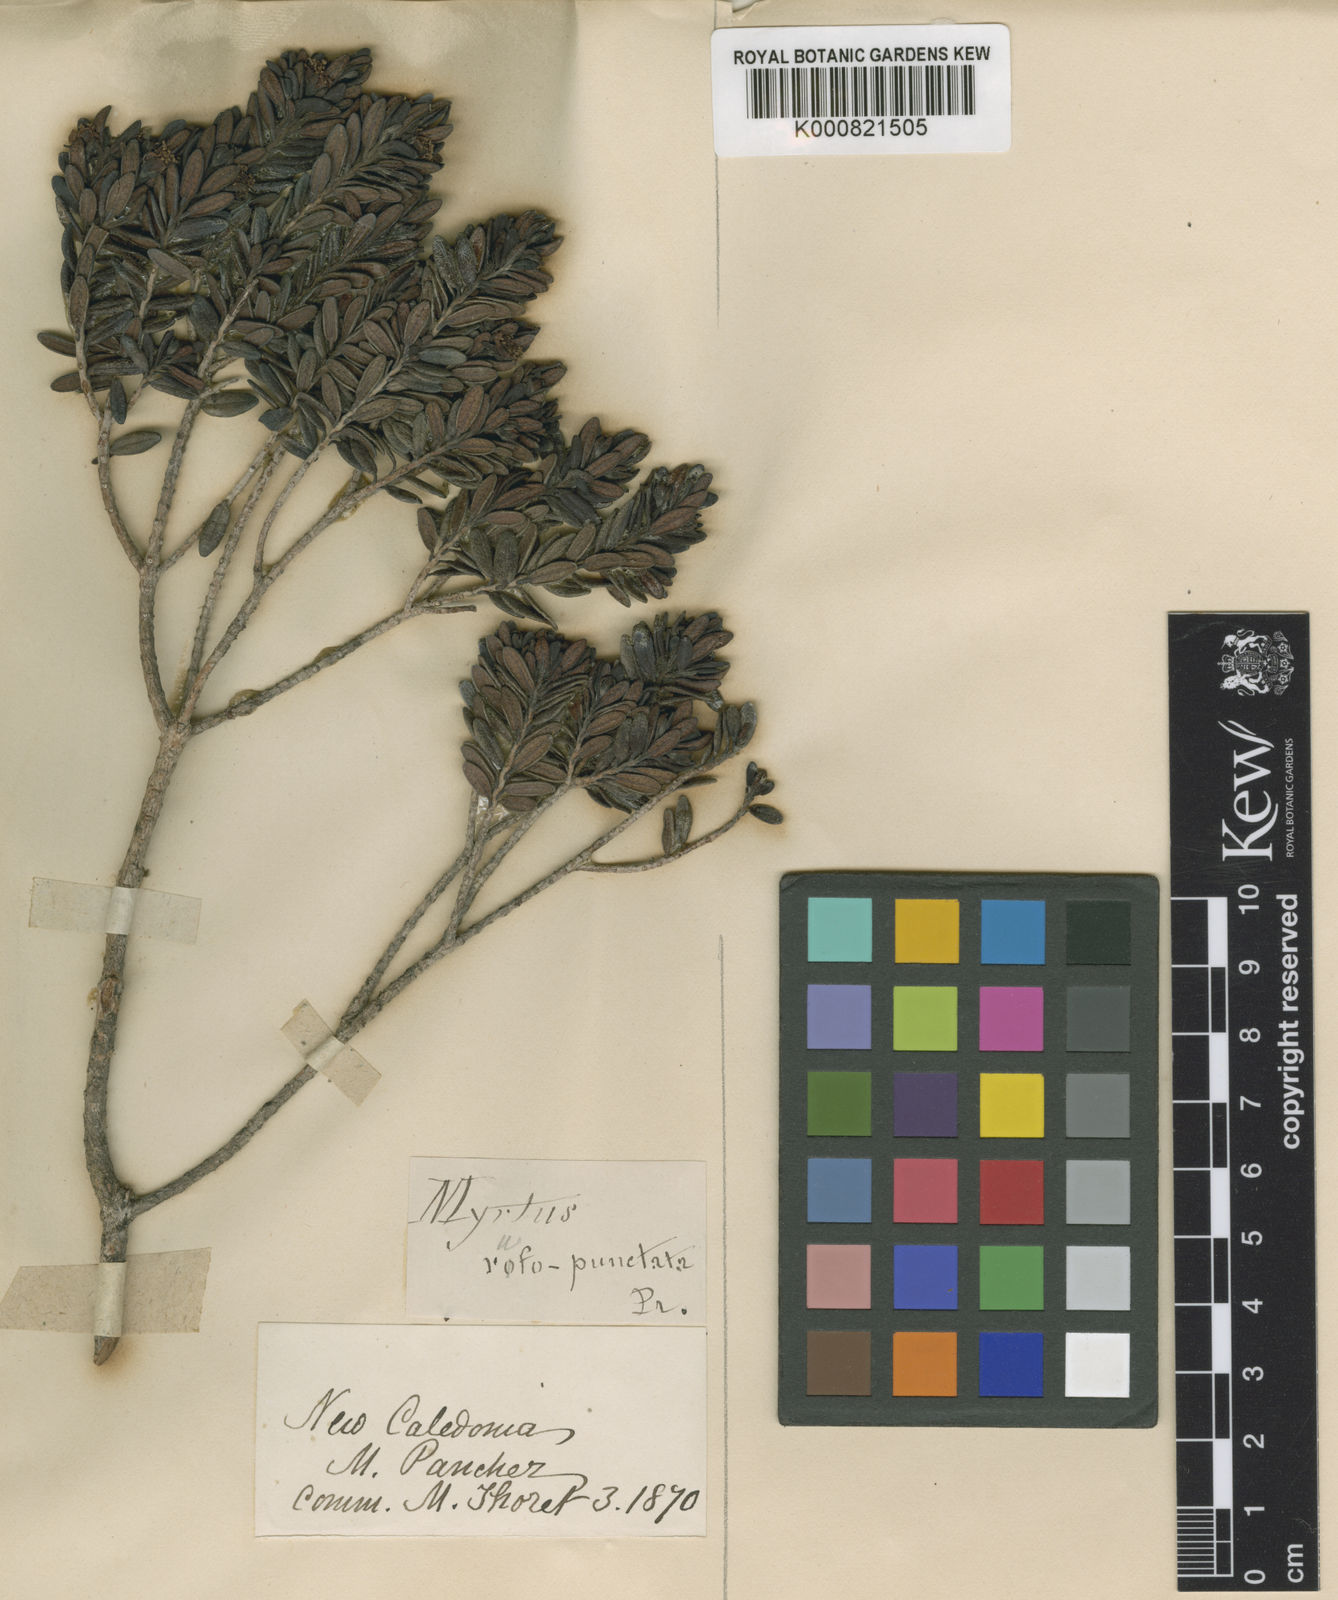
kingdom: Plantae
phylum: Tracheophyta
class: Magnoliopsida
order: Myrtales
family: Myrtaceae
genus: Myrtastrum
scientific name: Myrtastrum rufopunctatum
